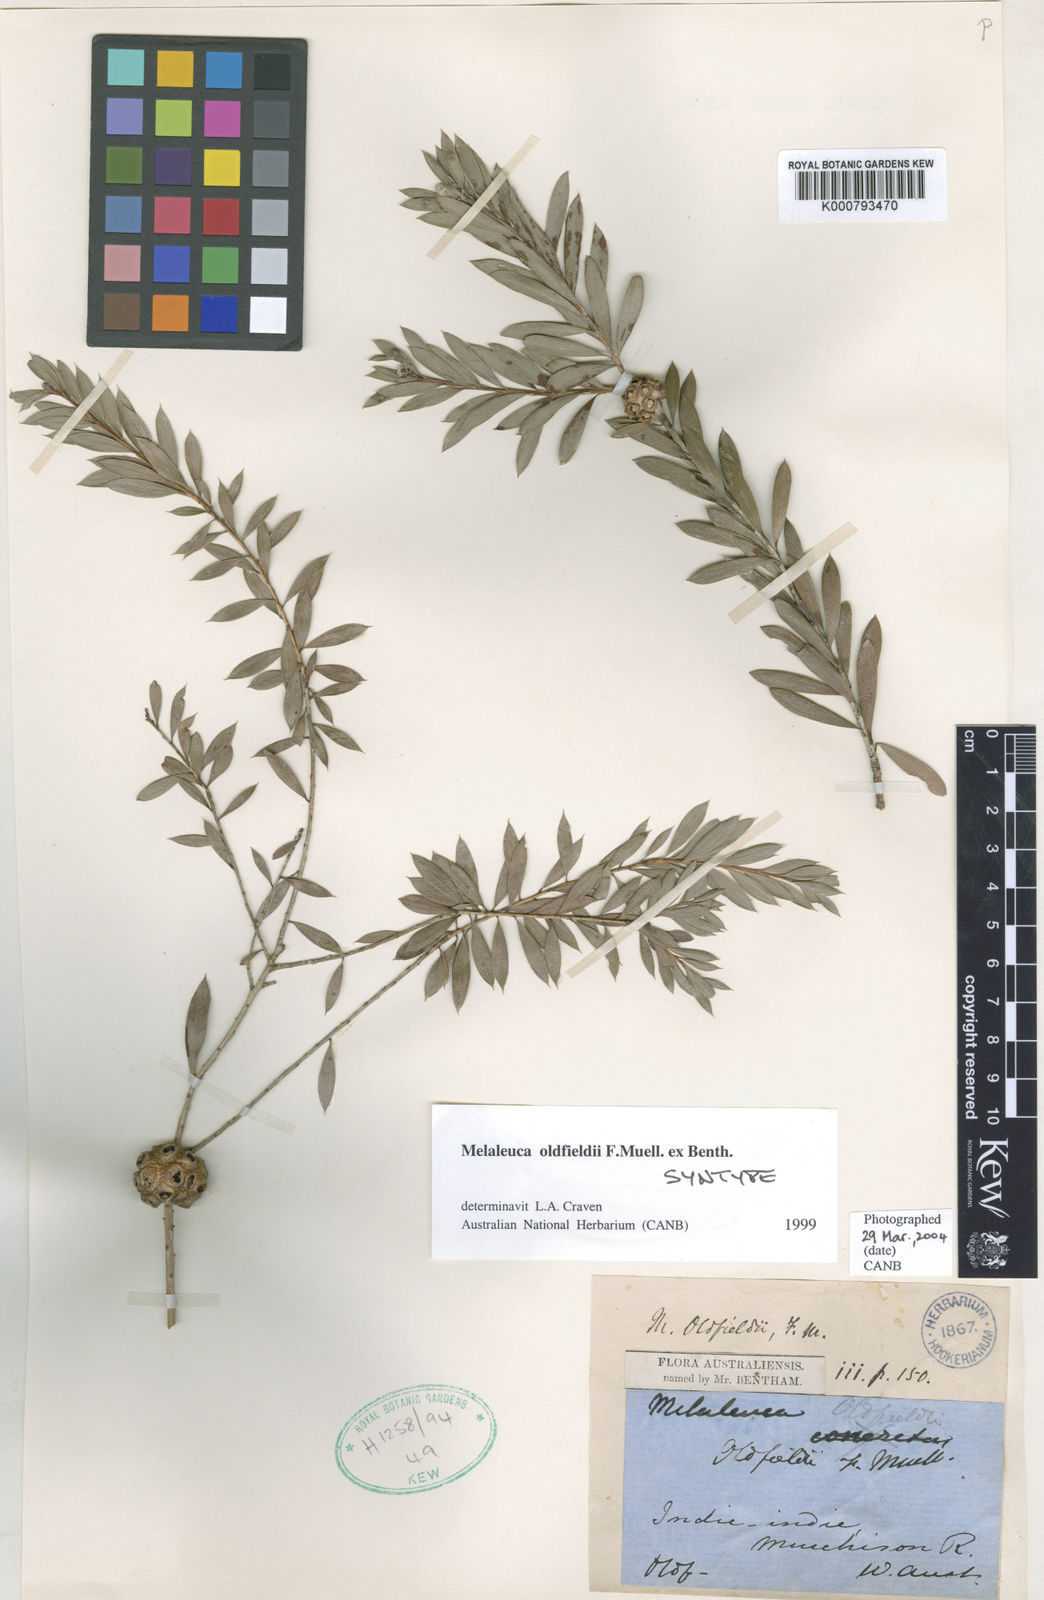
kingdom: Plantae
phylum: Tracheophyta
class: Magnoliopsida
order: Myrtales
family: Myrtaceae
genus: Melaleuca
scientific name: Melaleuca
